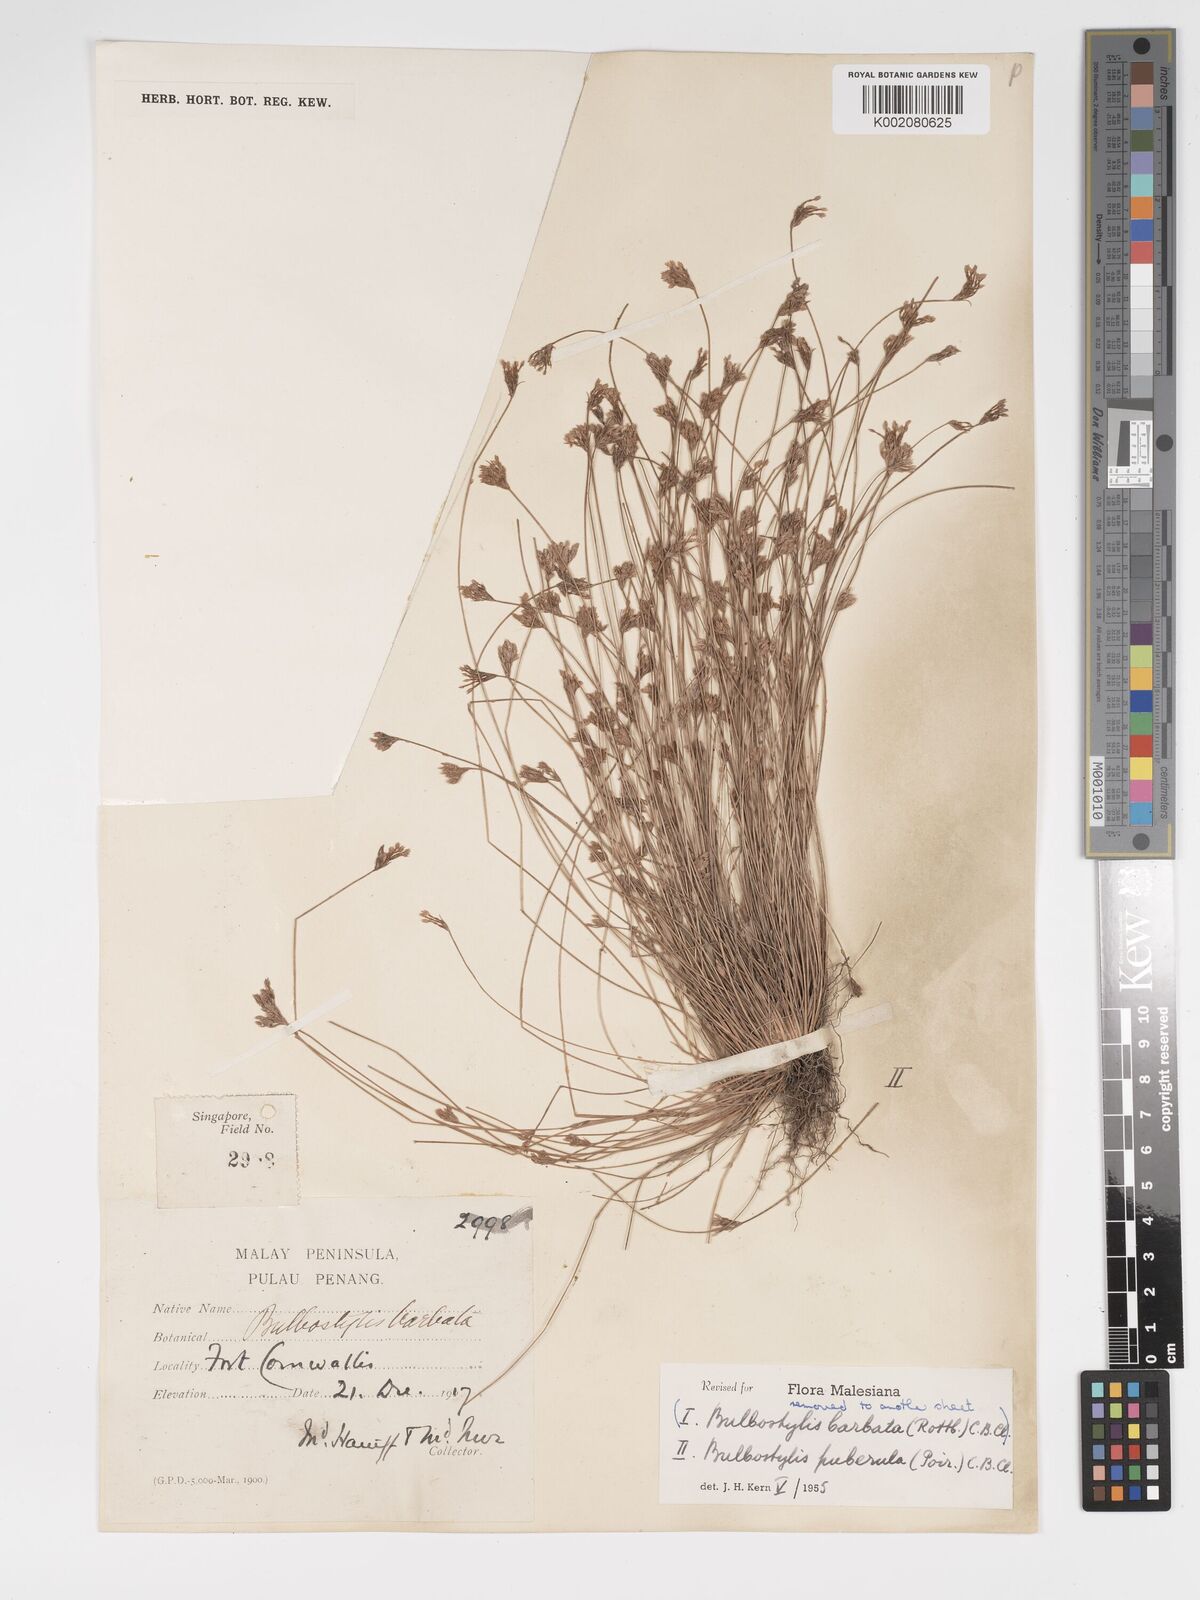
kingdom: Plantae
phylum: Tracheophyta
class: Liliopsida
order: Poales
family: Cyperaceae
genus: Bulbostylis
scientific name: Bulbostylis thouarsii
